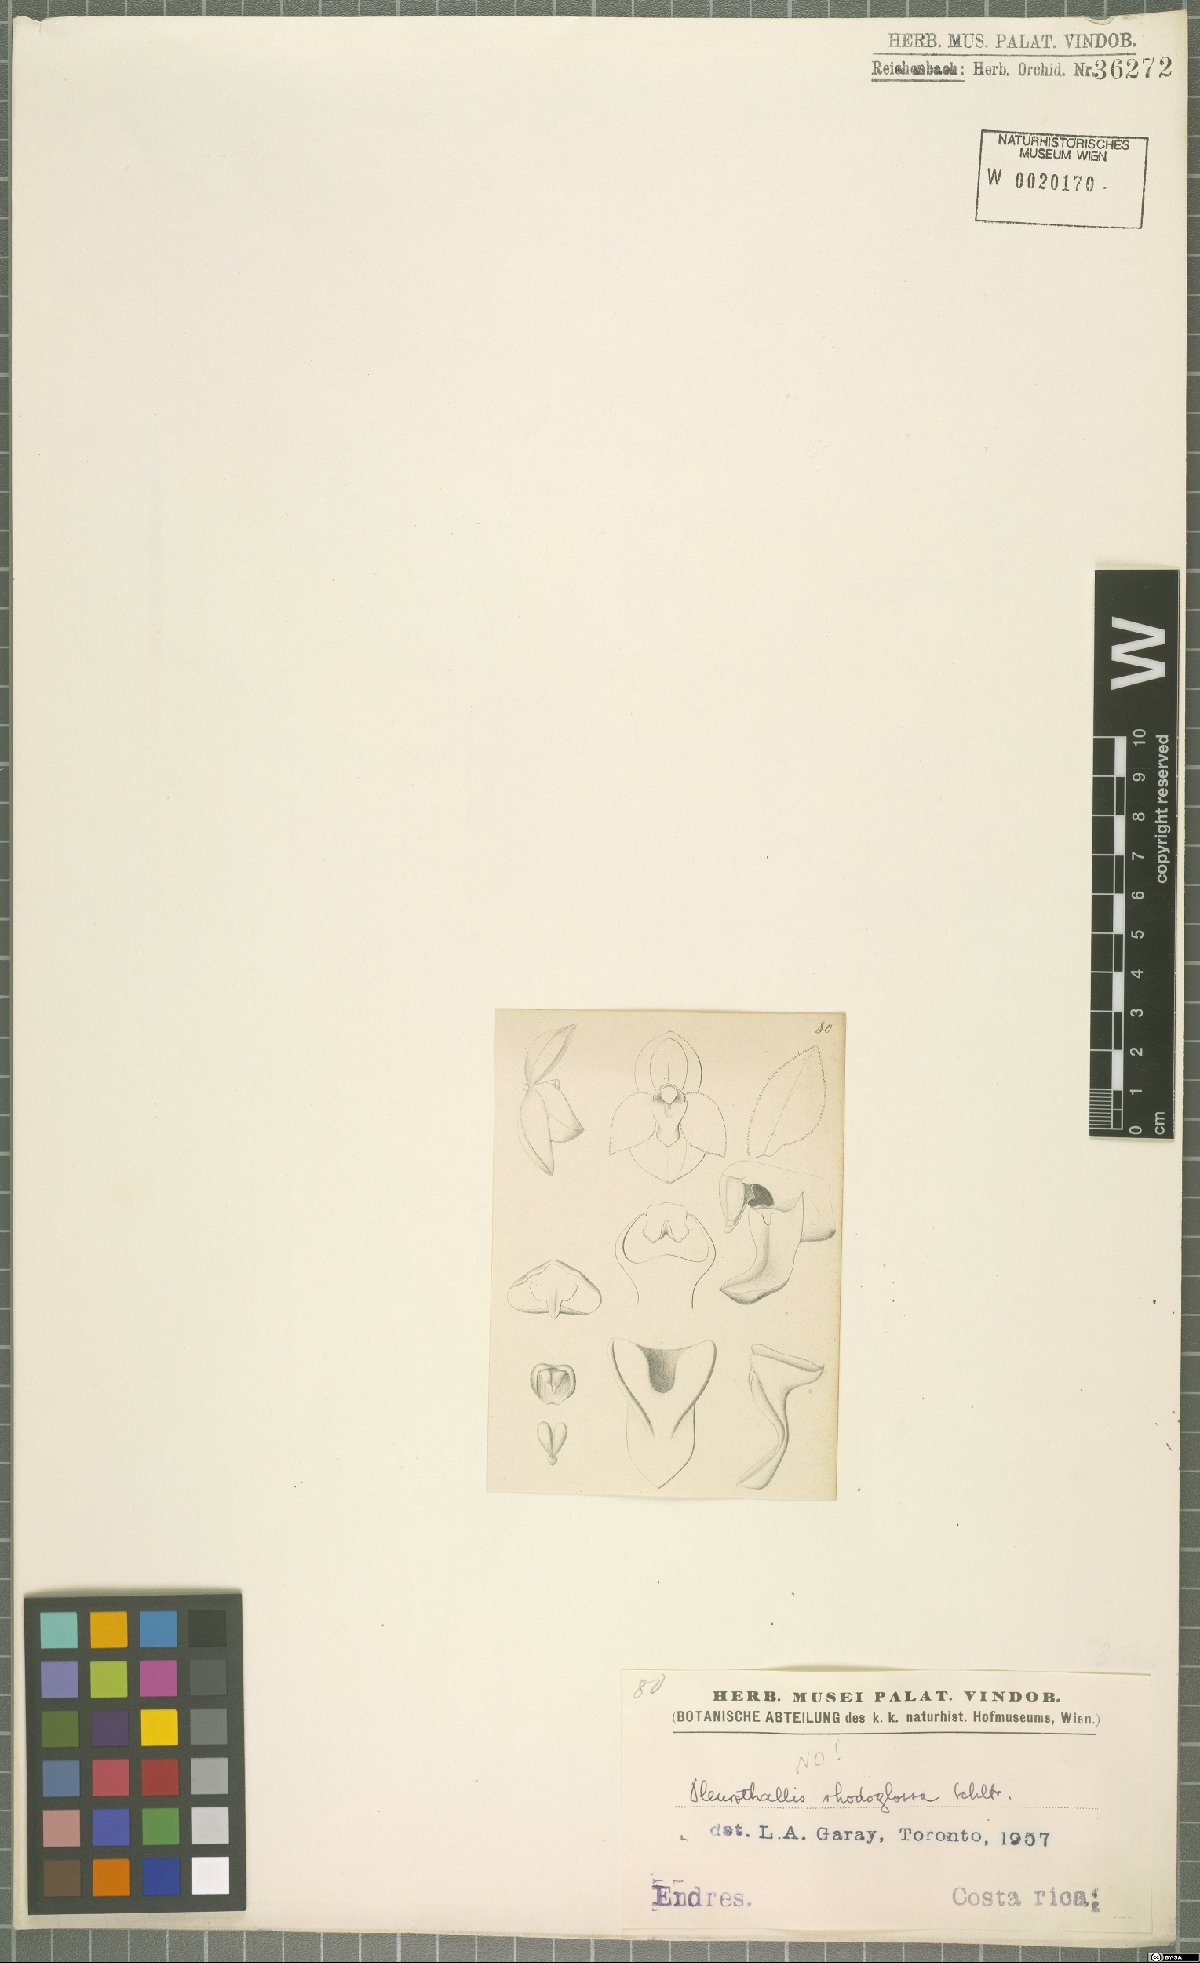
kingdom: Plantae
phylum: Tracheophyta
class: Liliopsida
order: Asparagales
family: Orchidaceae
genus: Pleurothallis
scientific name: Pleurothallis rhodoglossa
